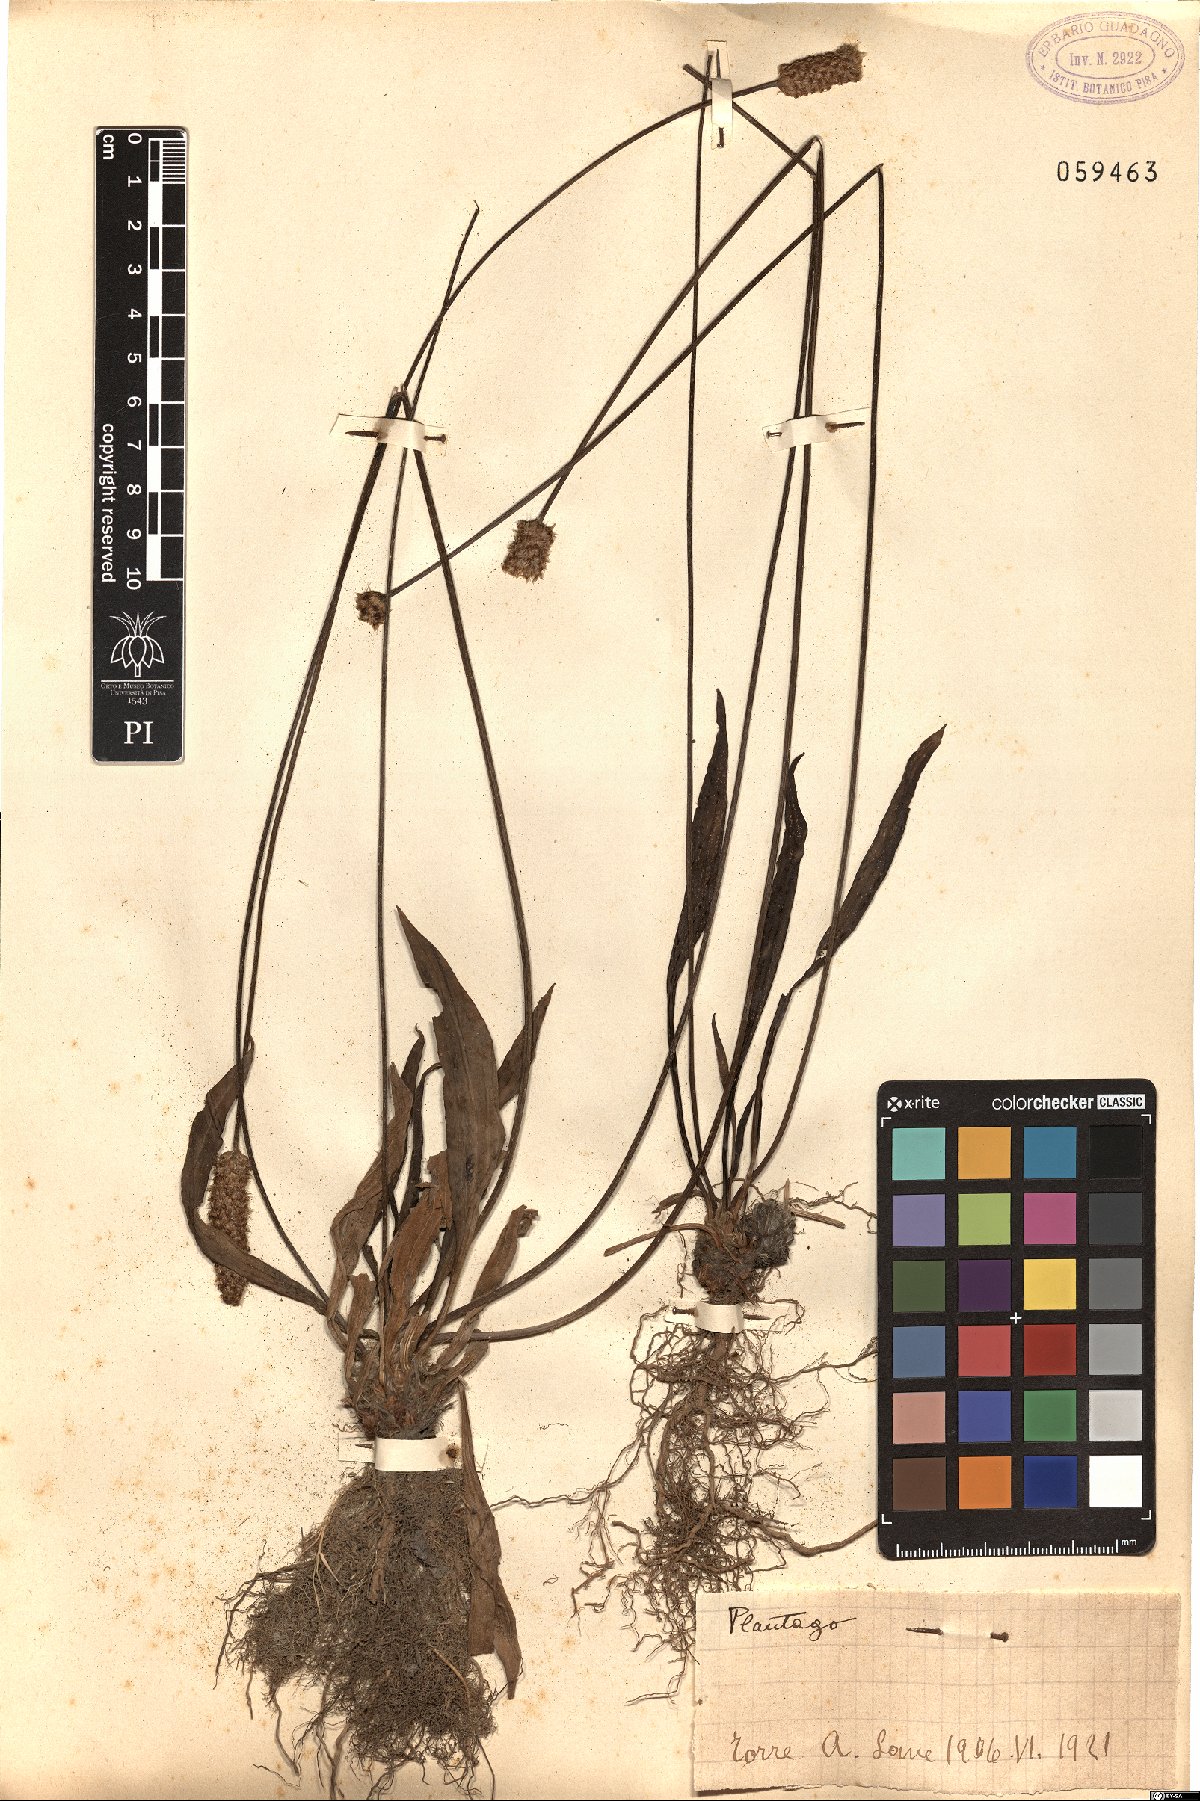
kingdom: Plantae
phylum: Tracheophyta
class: Magnoliopsida
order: Lamiales
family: Plantaginaceae
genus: Plantago
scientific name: Plantago
